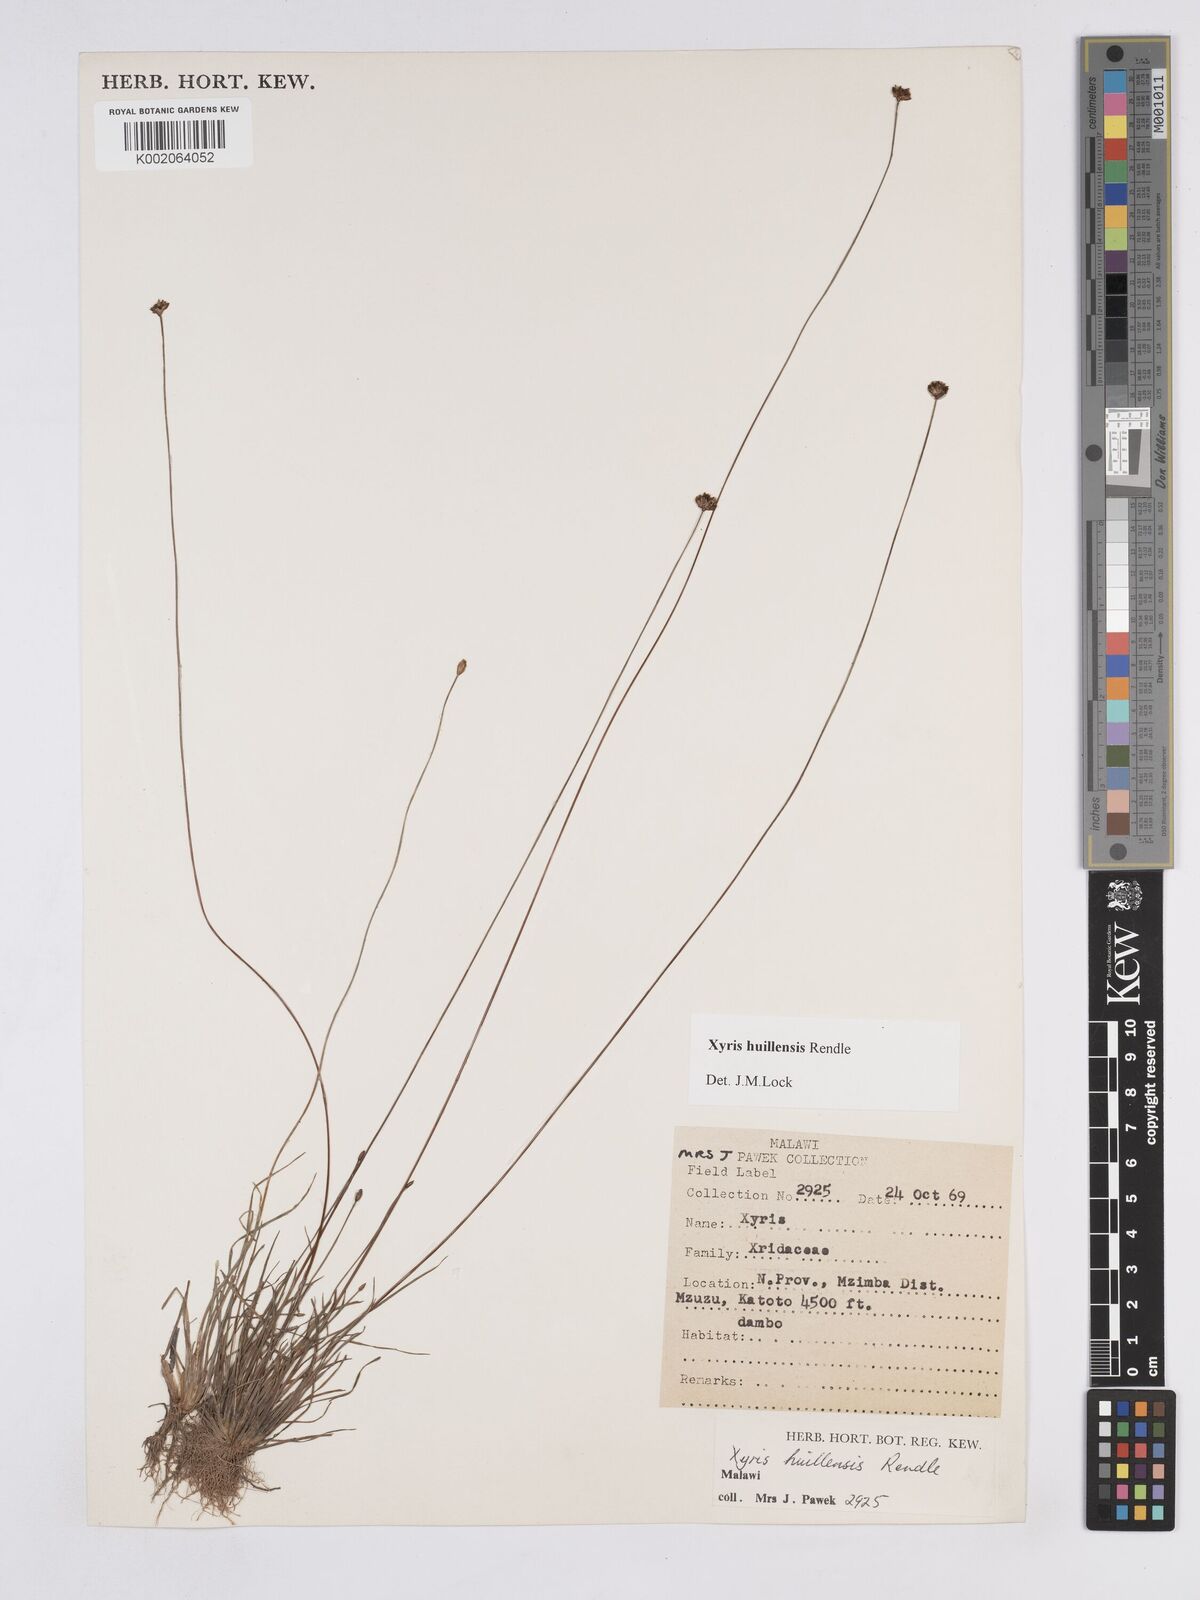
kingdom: Plantae
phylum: Tracheophyta
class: Liliopsida
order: Poales
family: Xyridaceae
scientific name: Xyridaceae
